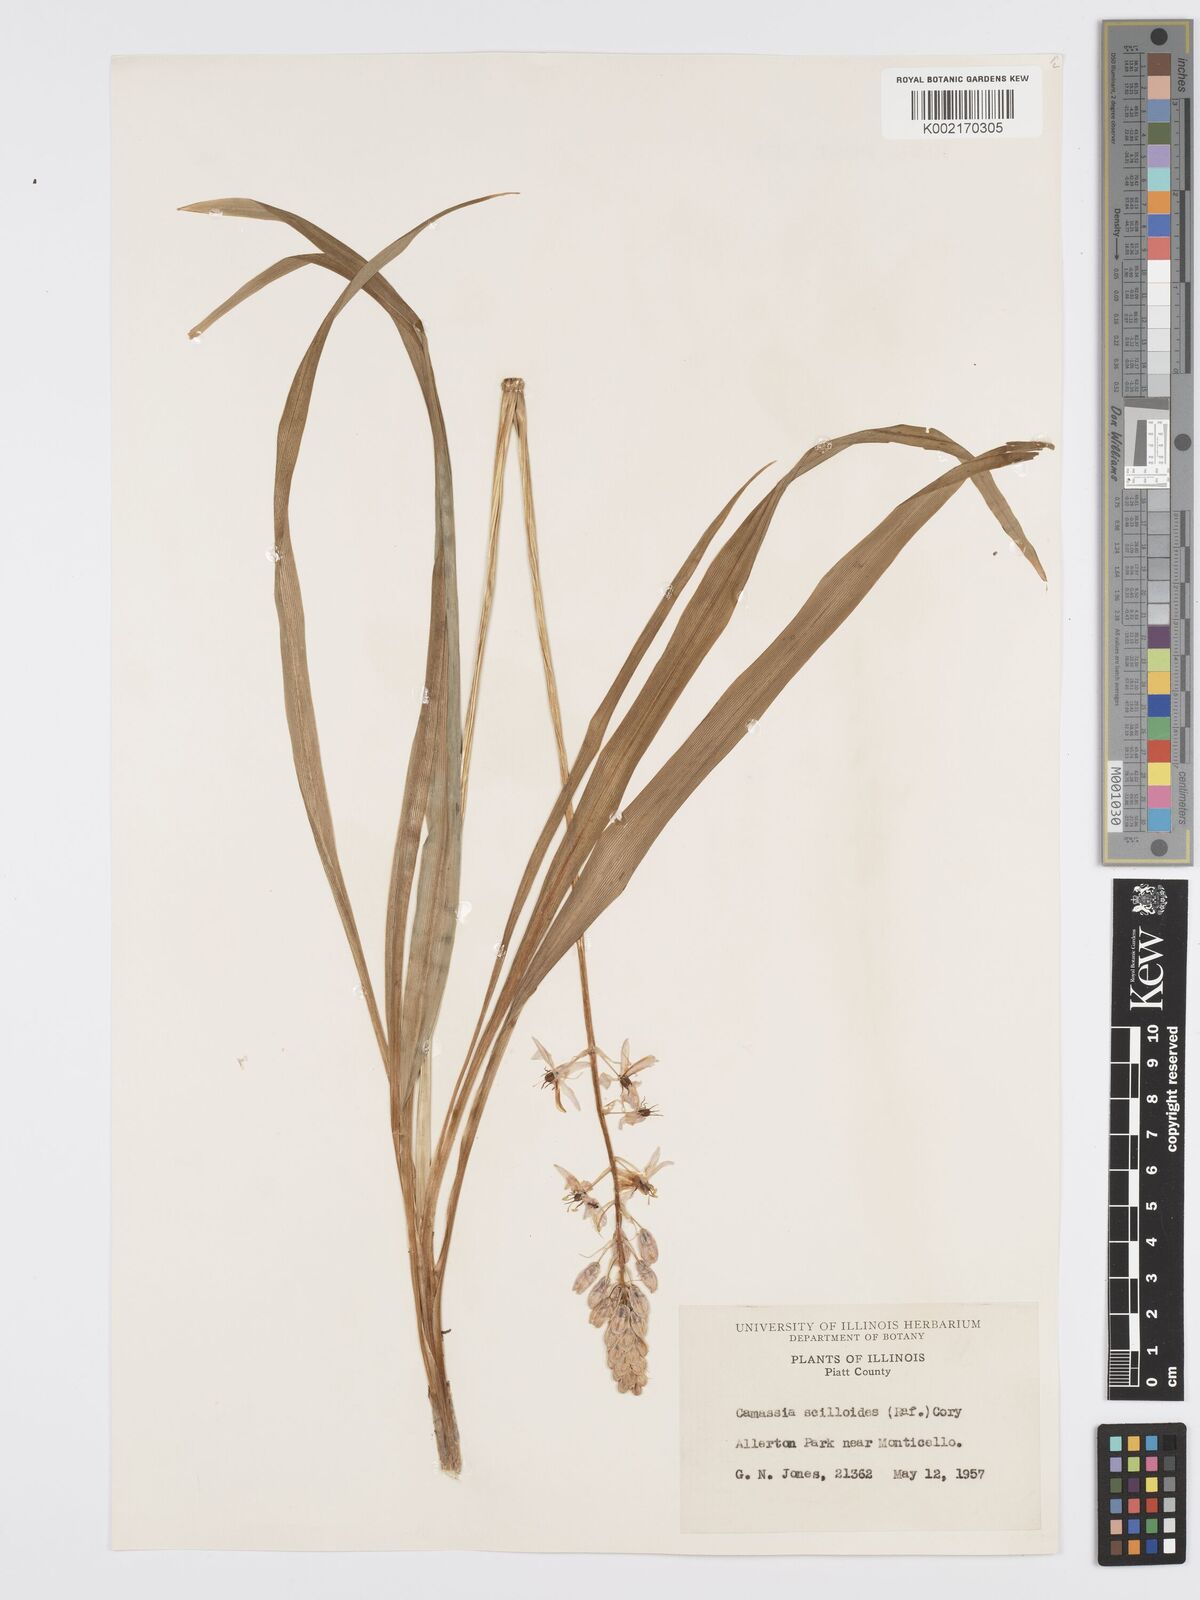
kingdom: Plantae
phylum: Tracheophyta
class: Liliopsida
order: Asparagales
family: Asparagaceae
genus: Camassia
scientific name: Camassia scilloides
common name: Wild hyacinth
